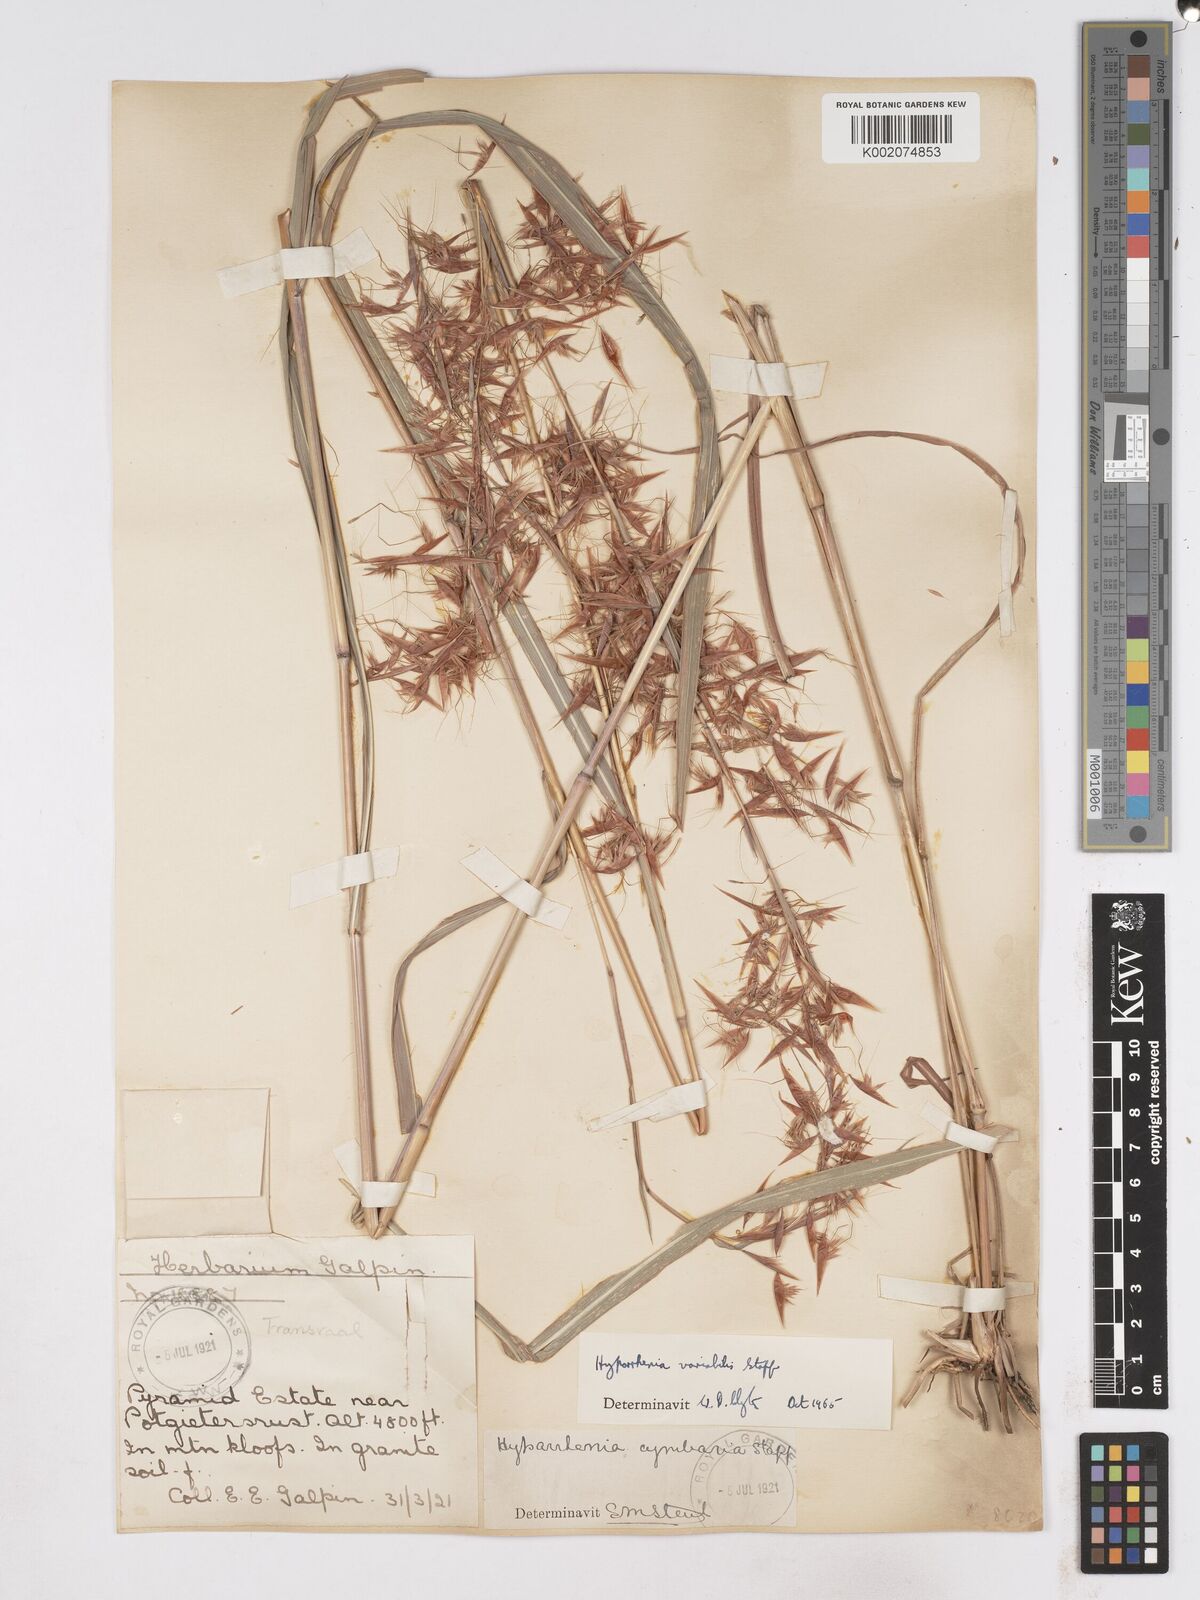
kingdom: Plantae
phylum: Tracheophyta
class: Liliopsida
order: Poales
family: Poaceae
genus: Hyparrhenia
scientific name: Hyparrhenia variabilis
